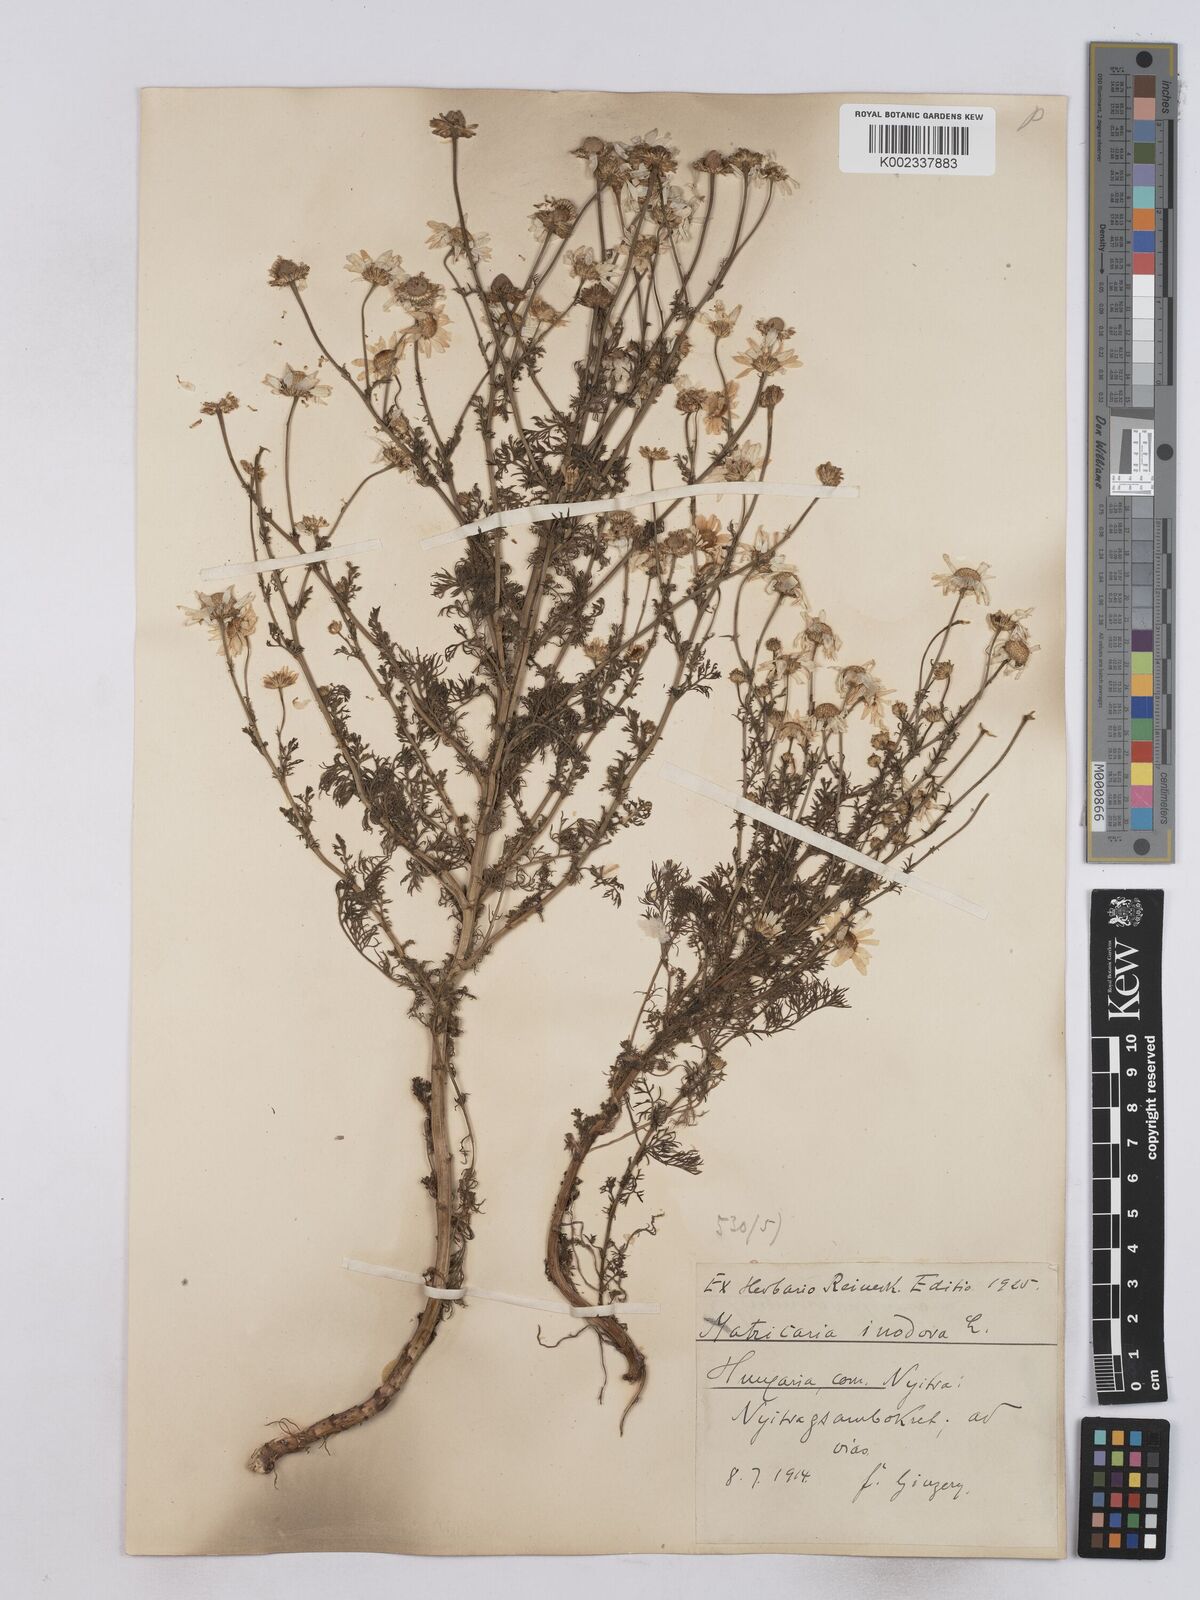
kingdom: Plantae
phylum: Tracheophyta
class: Magnoliopsida
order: Asterales
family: Asteraceae
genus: Matricaria
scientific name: Matricaria chamomilla
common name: Scented mayweed
